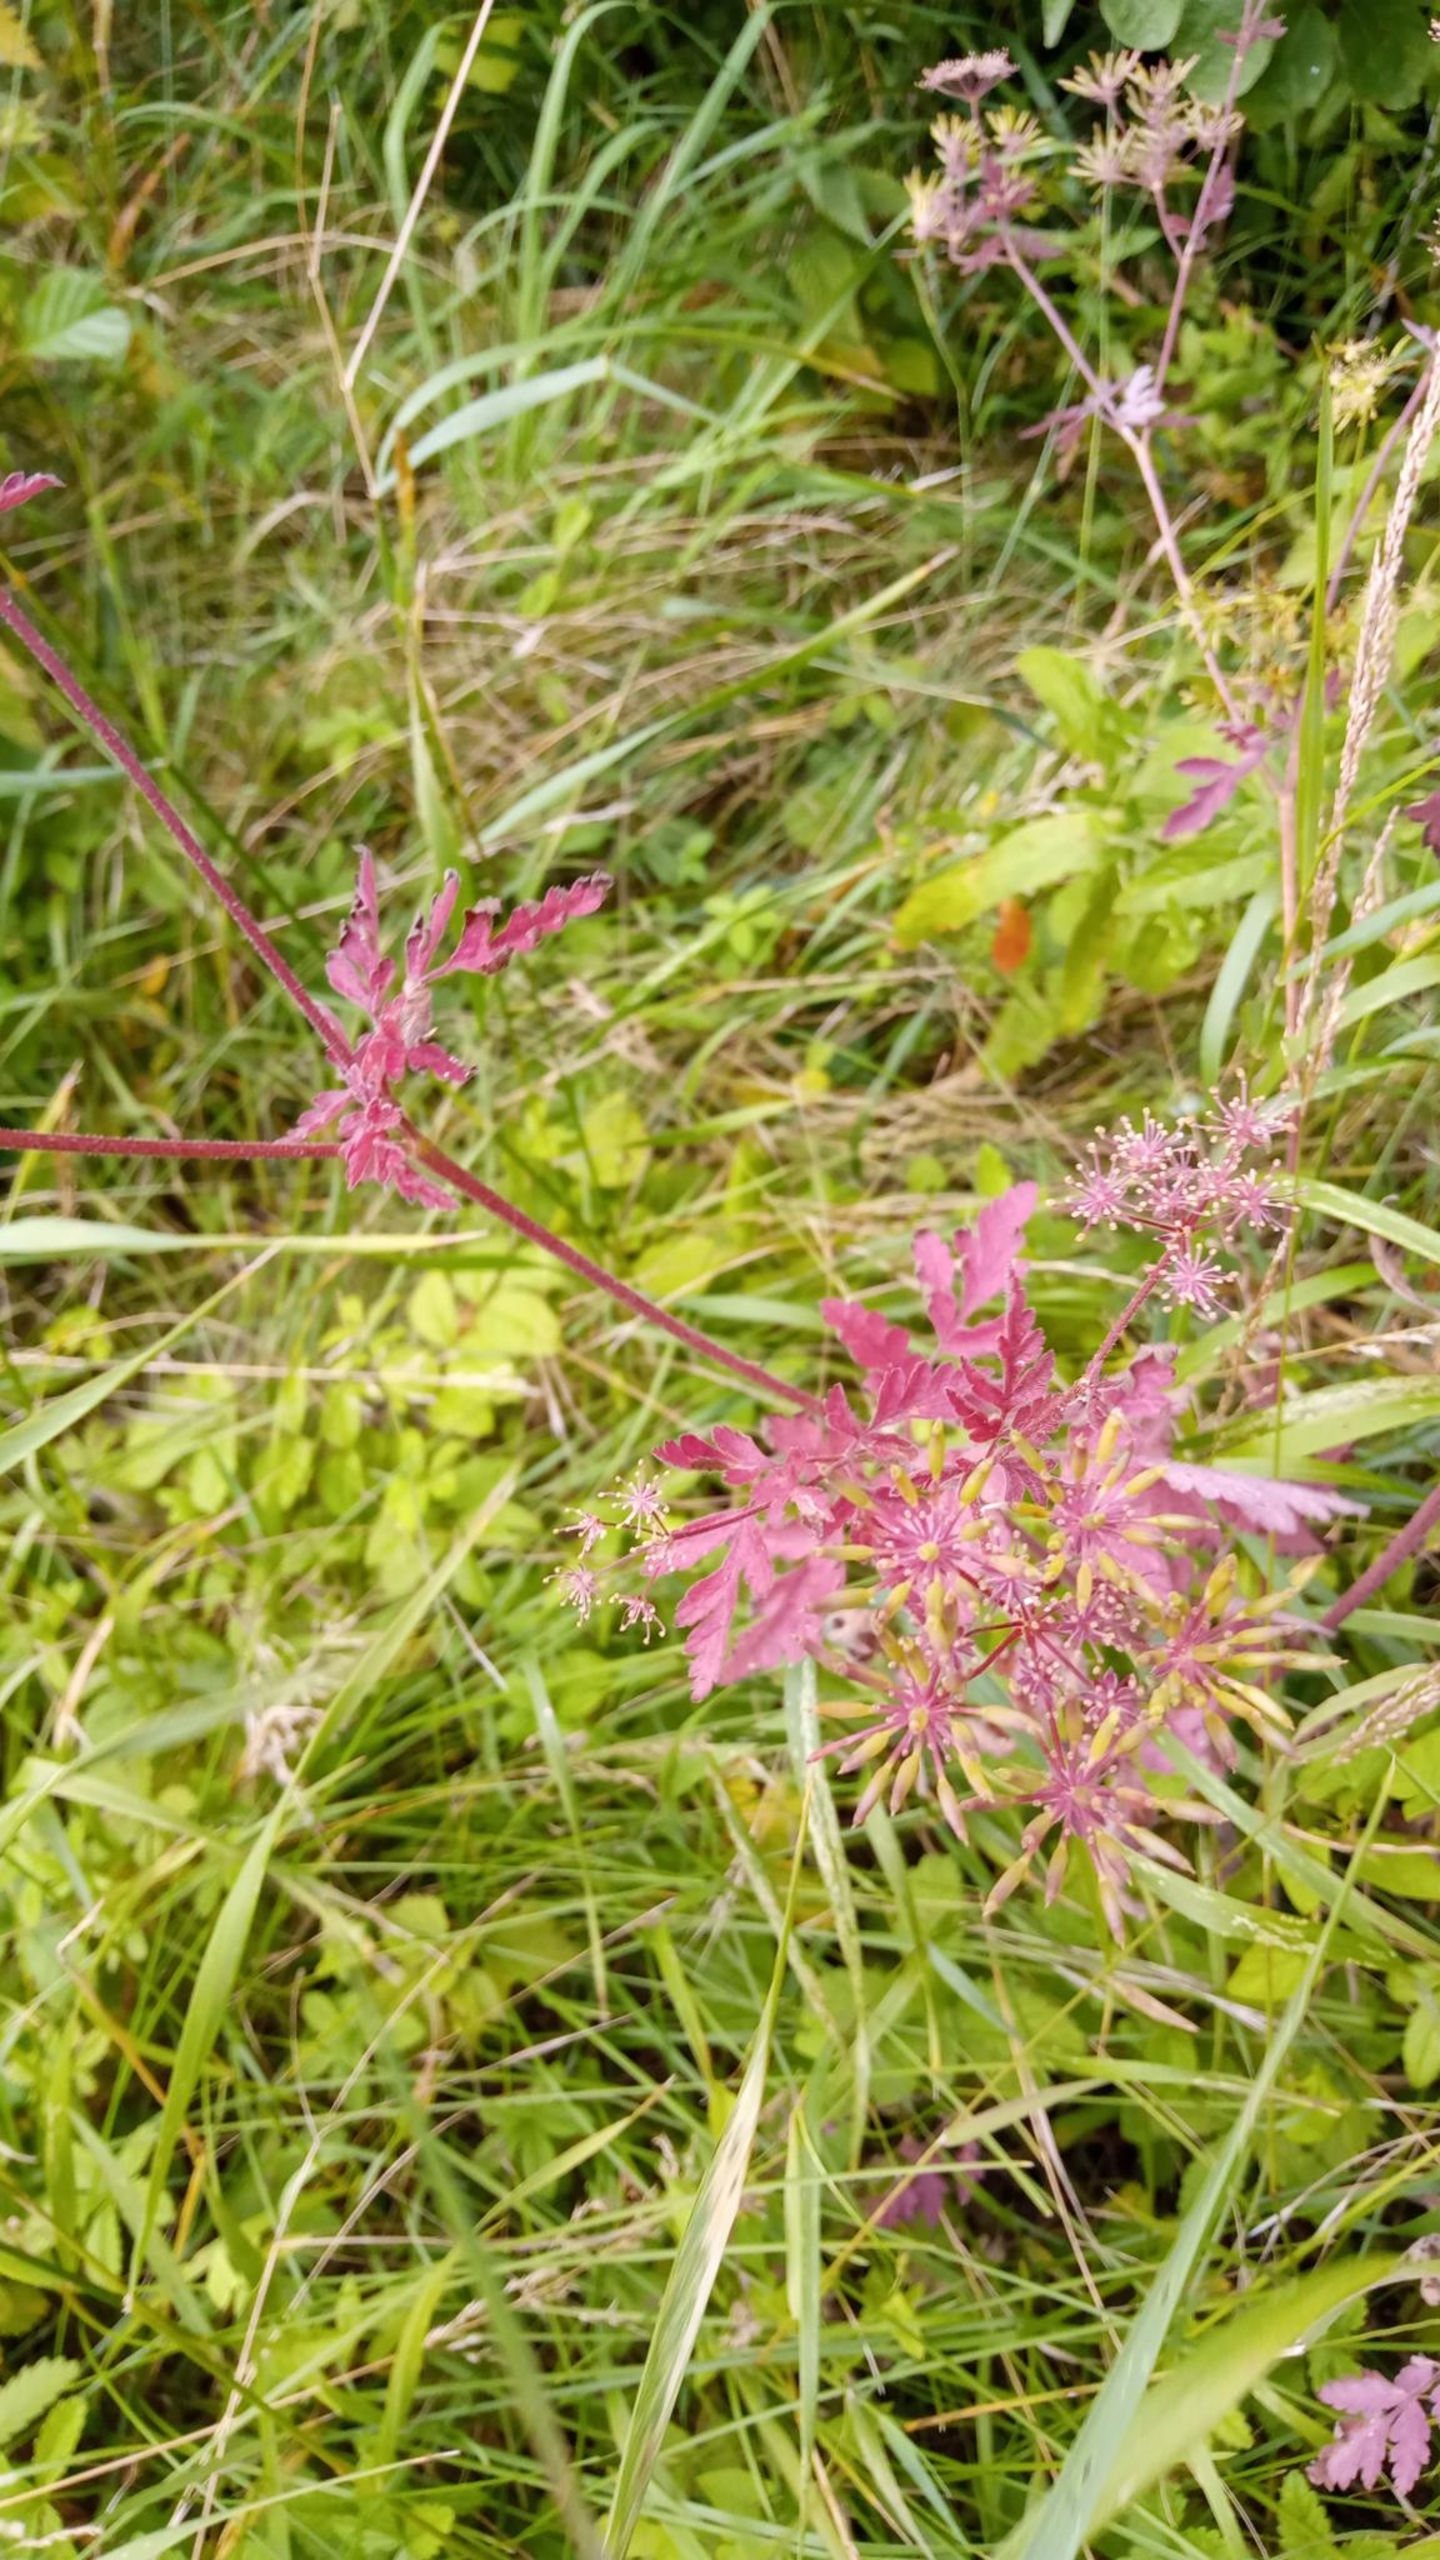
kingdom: Plantae
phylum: Tracheophyta
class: Magnoliopsida
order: Apiales
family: Apiaceae
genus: Chaerophyllum
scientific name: Chaerophyllum temulum
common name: Almindelig hulsvøb
